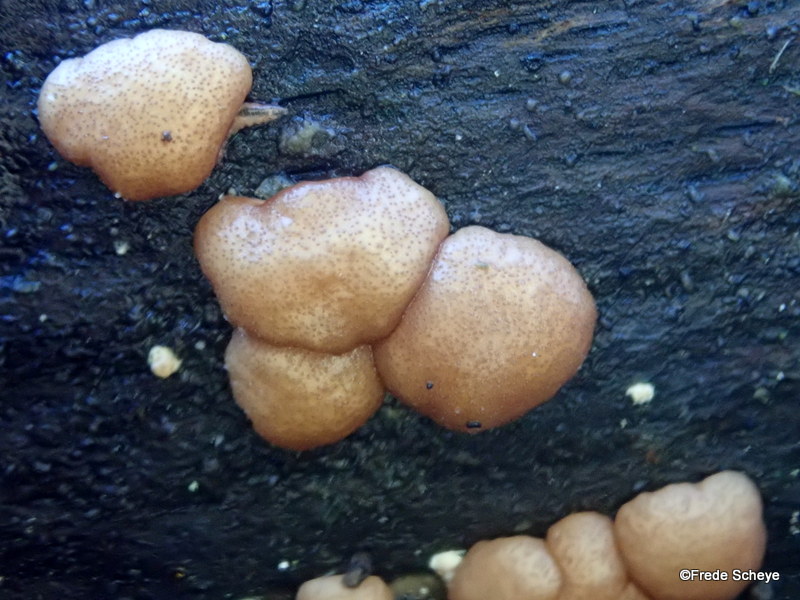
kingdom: Fungi
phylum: Ascomycota
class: Sordariomycetes
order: Hypocreales
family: Hypocreaceae
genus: Trichoderma
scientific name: Trichoderma europaeum
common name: rosabrun kødkerne
